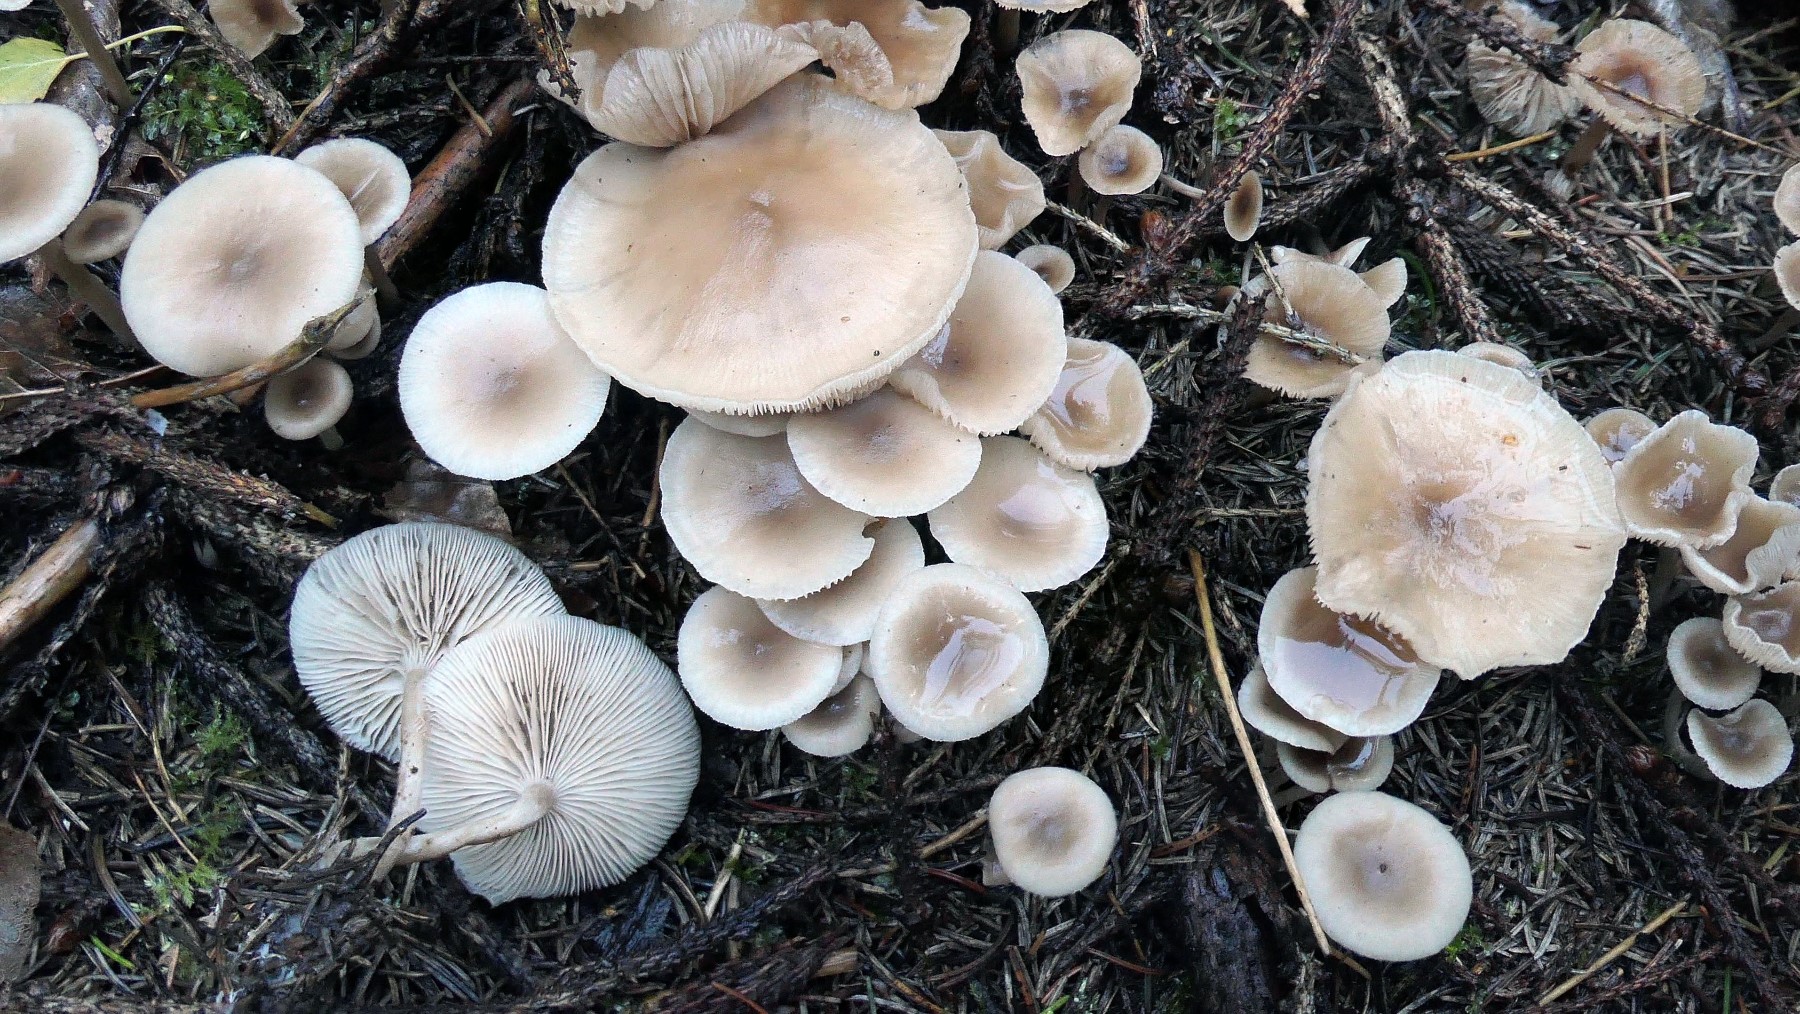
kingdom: Fungi
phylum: Basidiomycota
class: Agaricomycetes
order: Agaricales
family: Tricholomataceae
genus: Clitocybe
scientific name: Clitocybe fragrans
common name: vellugtende tragthat
